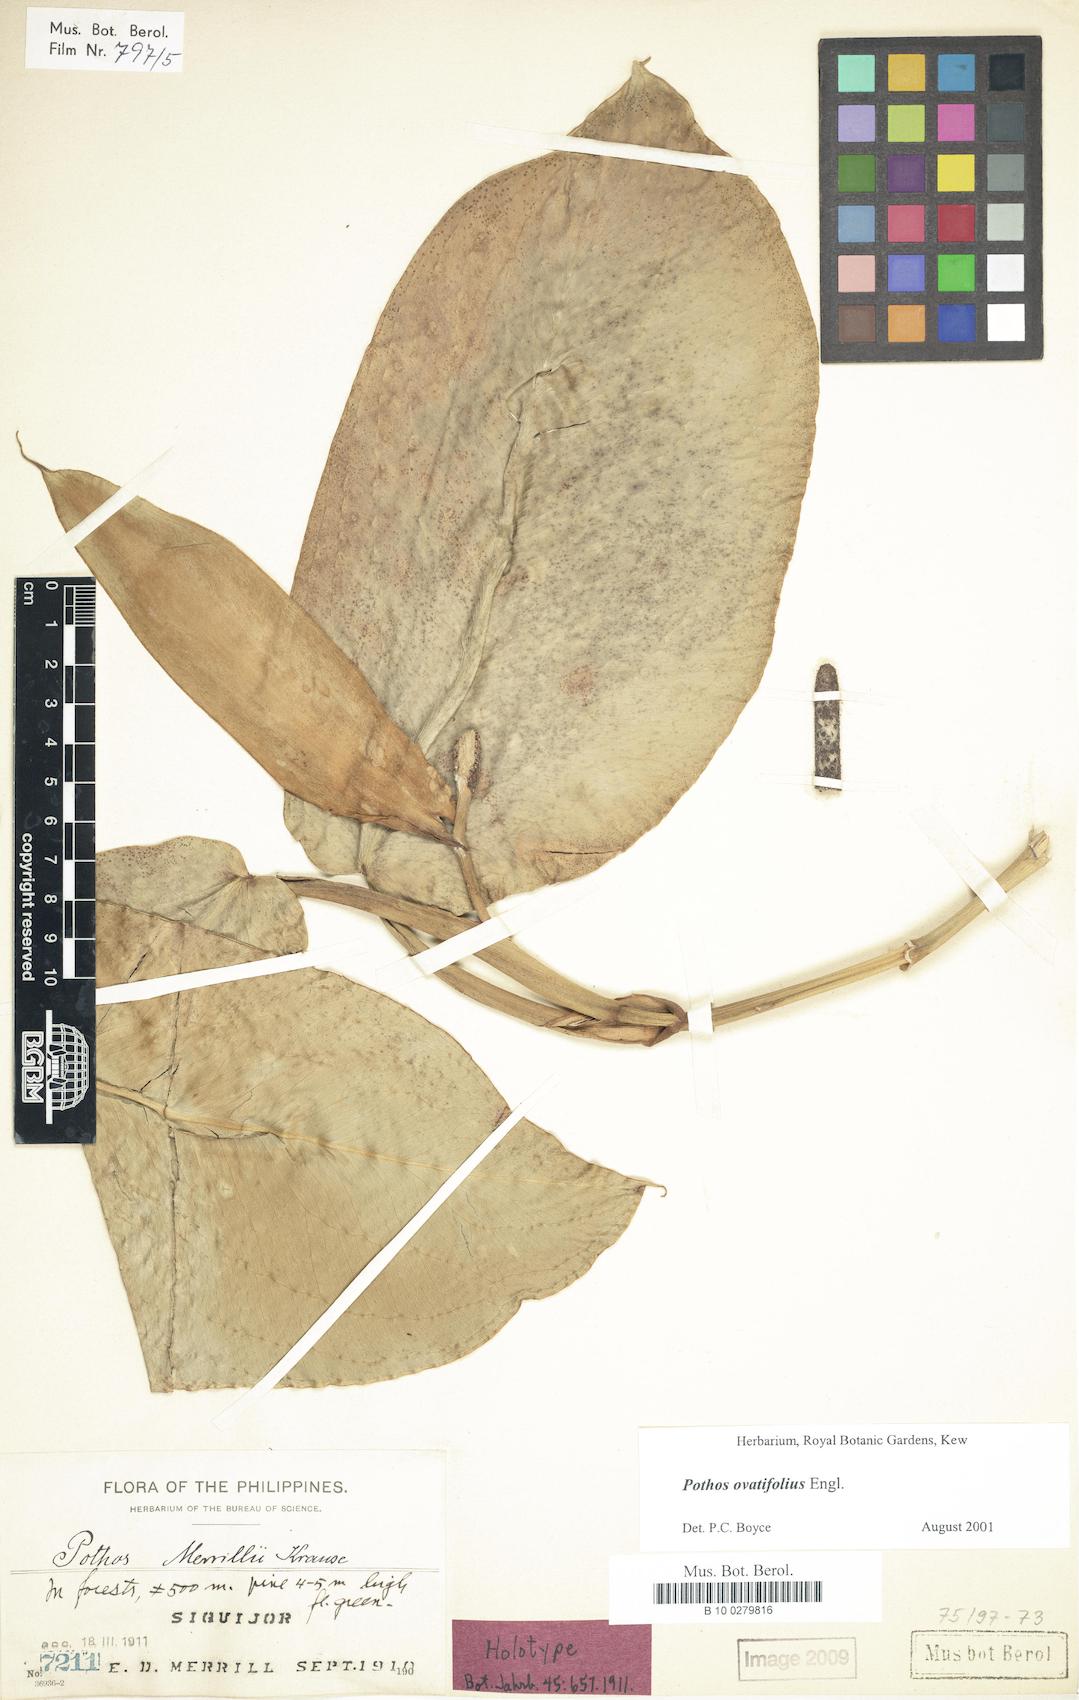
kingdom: Plantae
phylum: Tracheophyta
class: Liliopsida
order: Alismatales
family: Araceae
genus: Pothos
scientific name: Pothos ovatifolius
